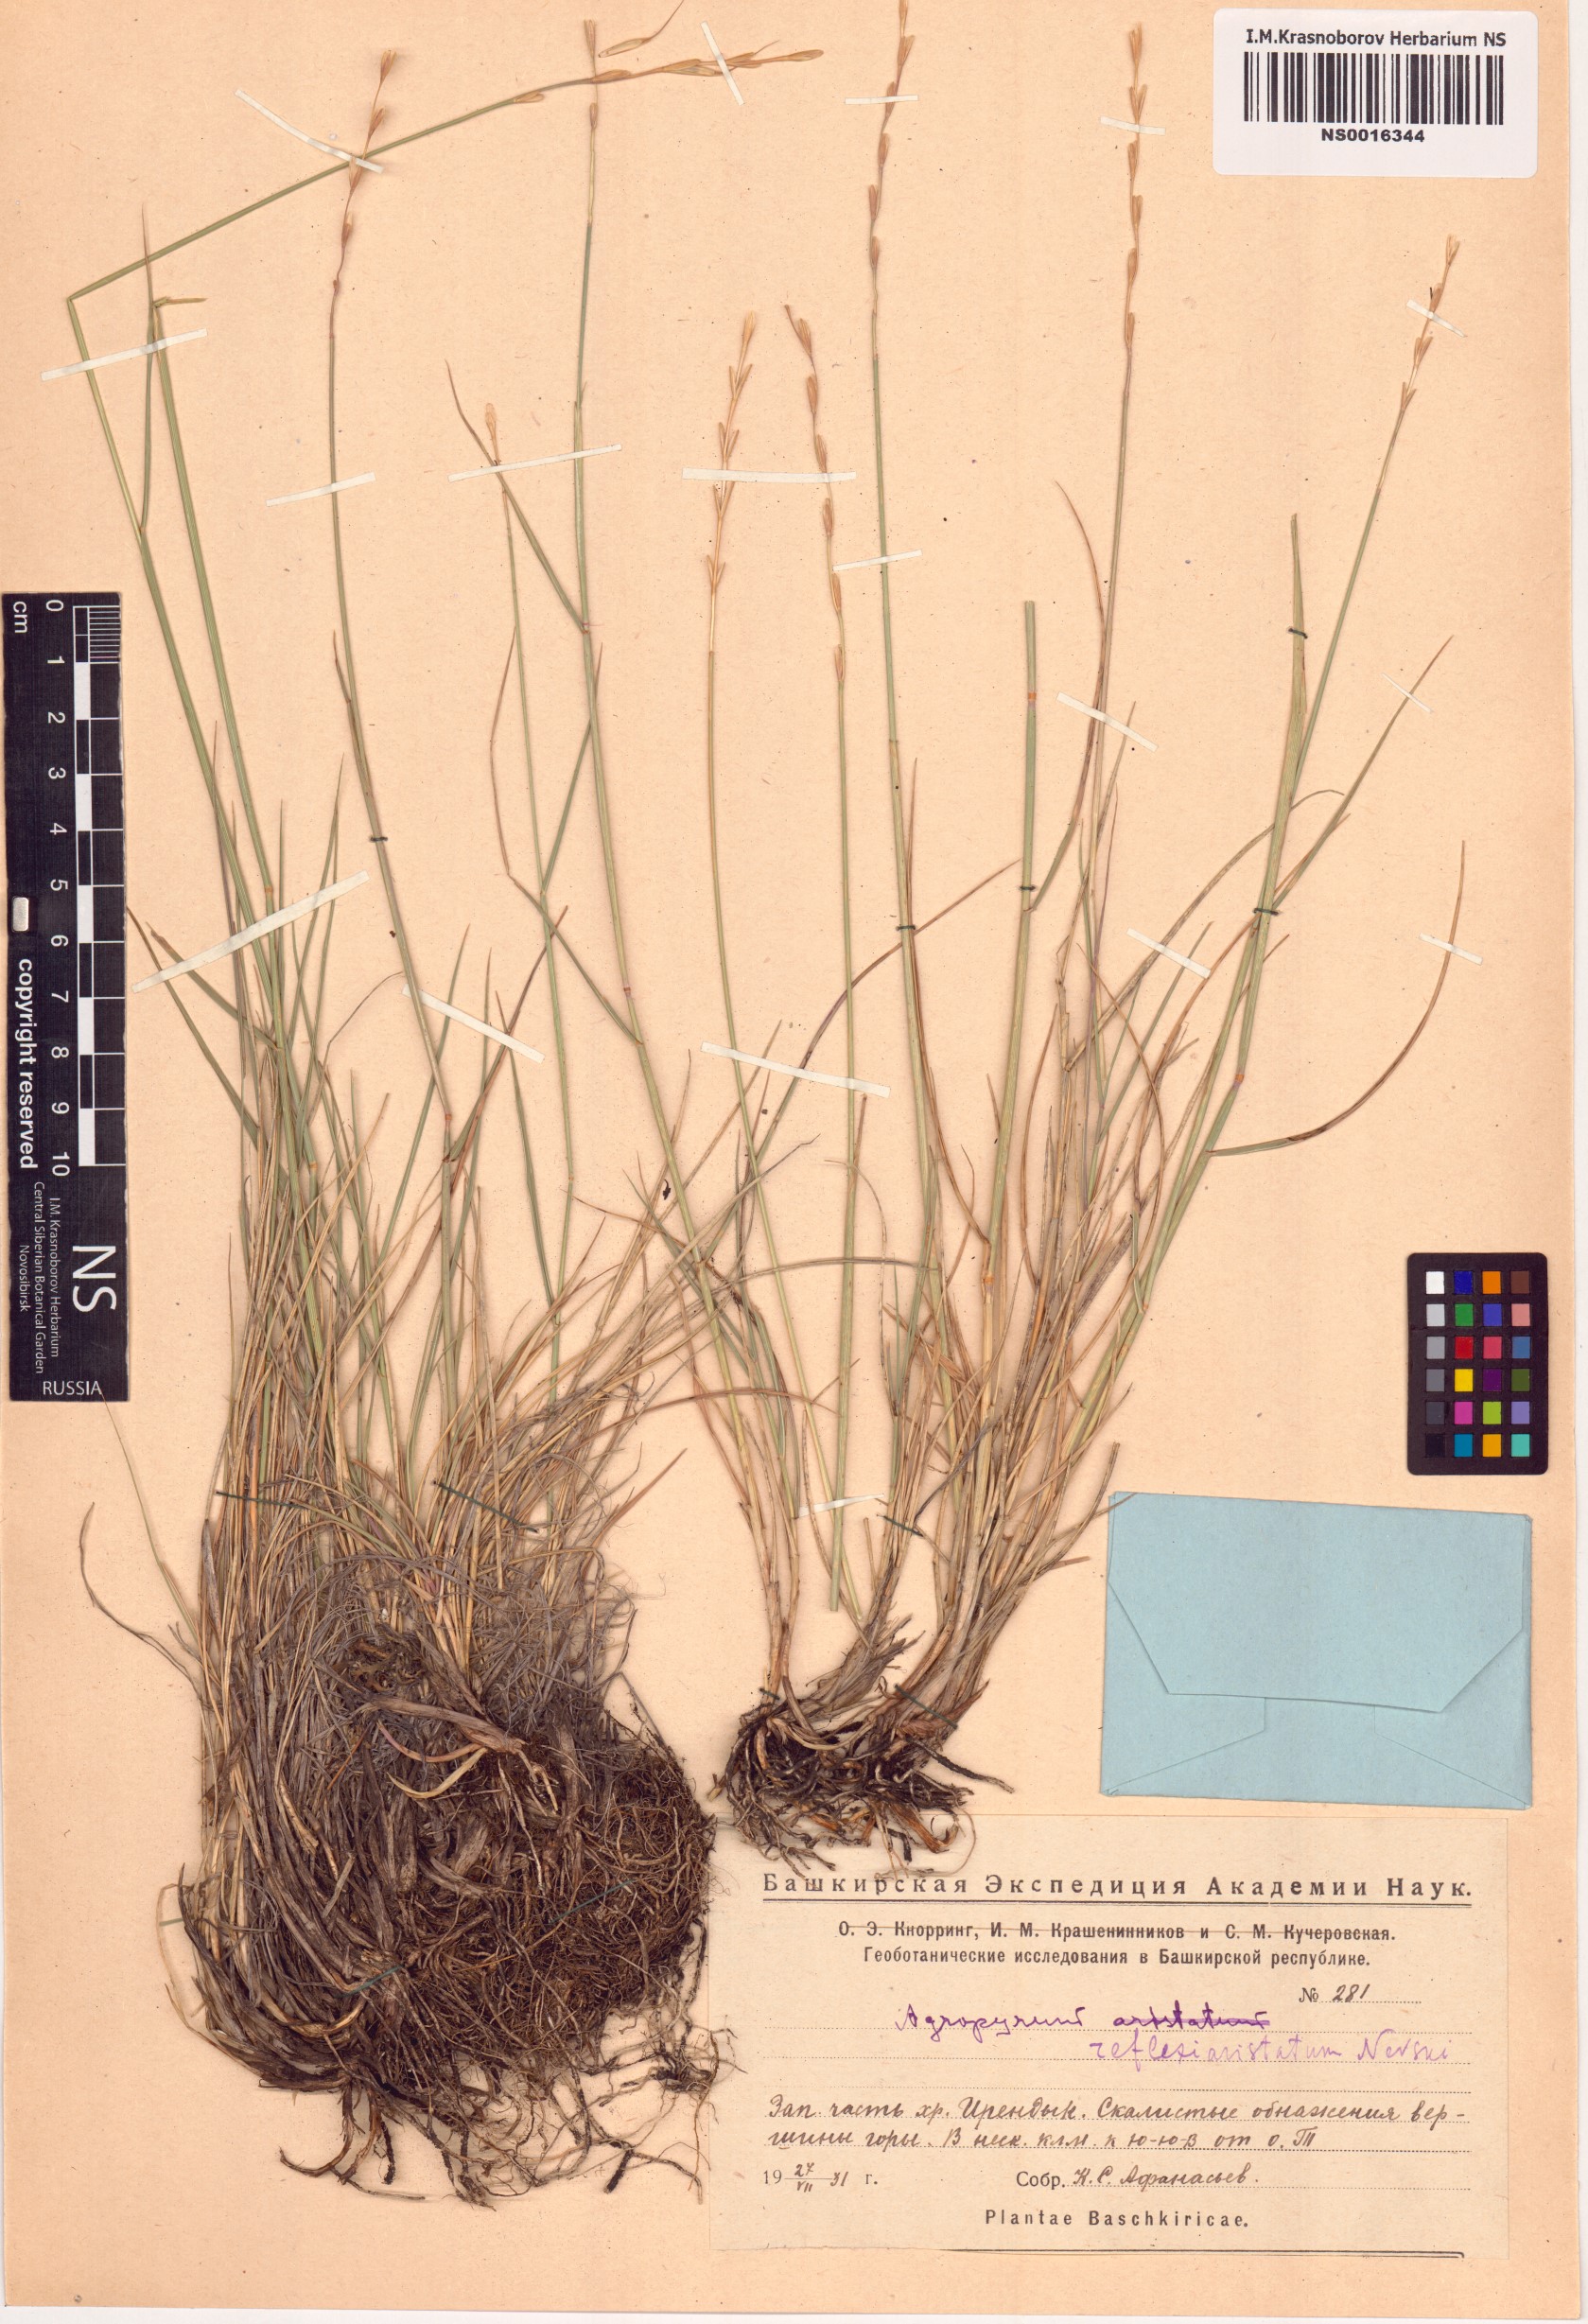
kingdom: Plantae
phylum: Tracheophyta
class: Liliopsida
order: Poales
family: Poaceae
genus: Pseudoroegneria
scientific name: Pseudoroegneria reflexiaristata
